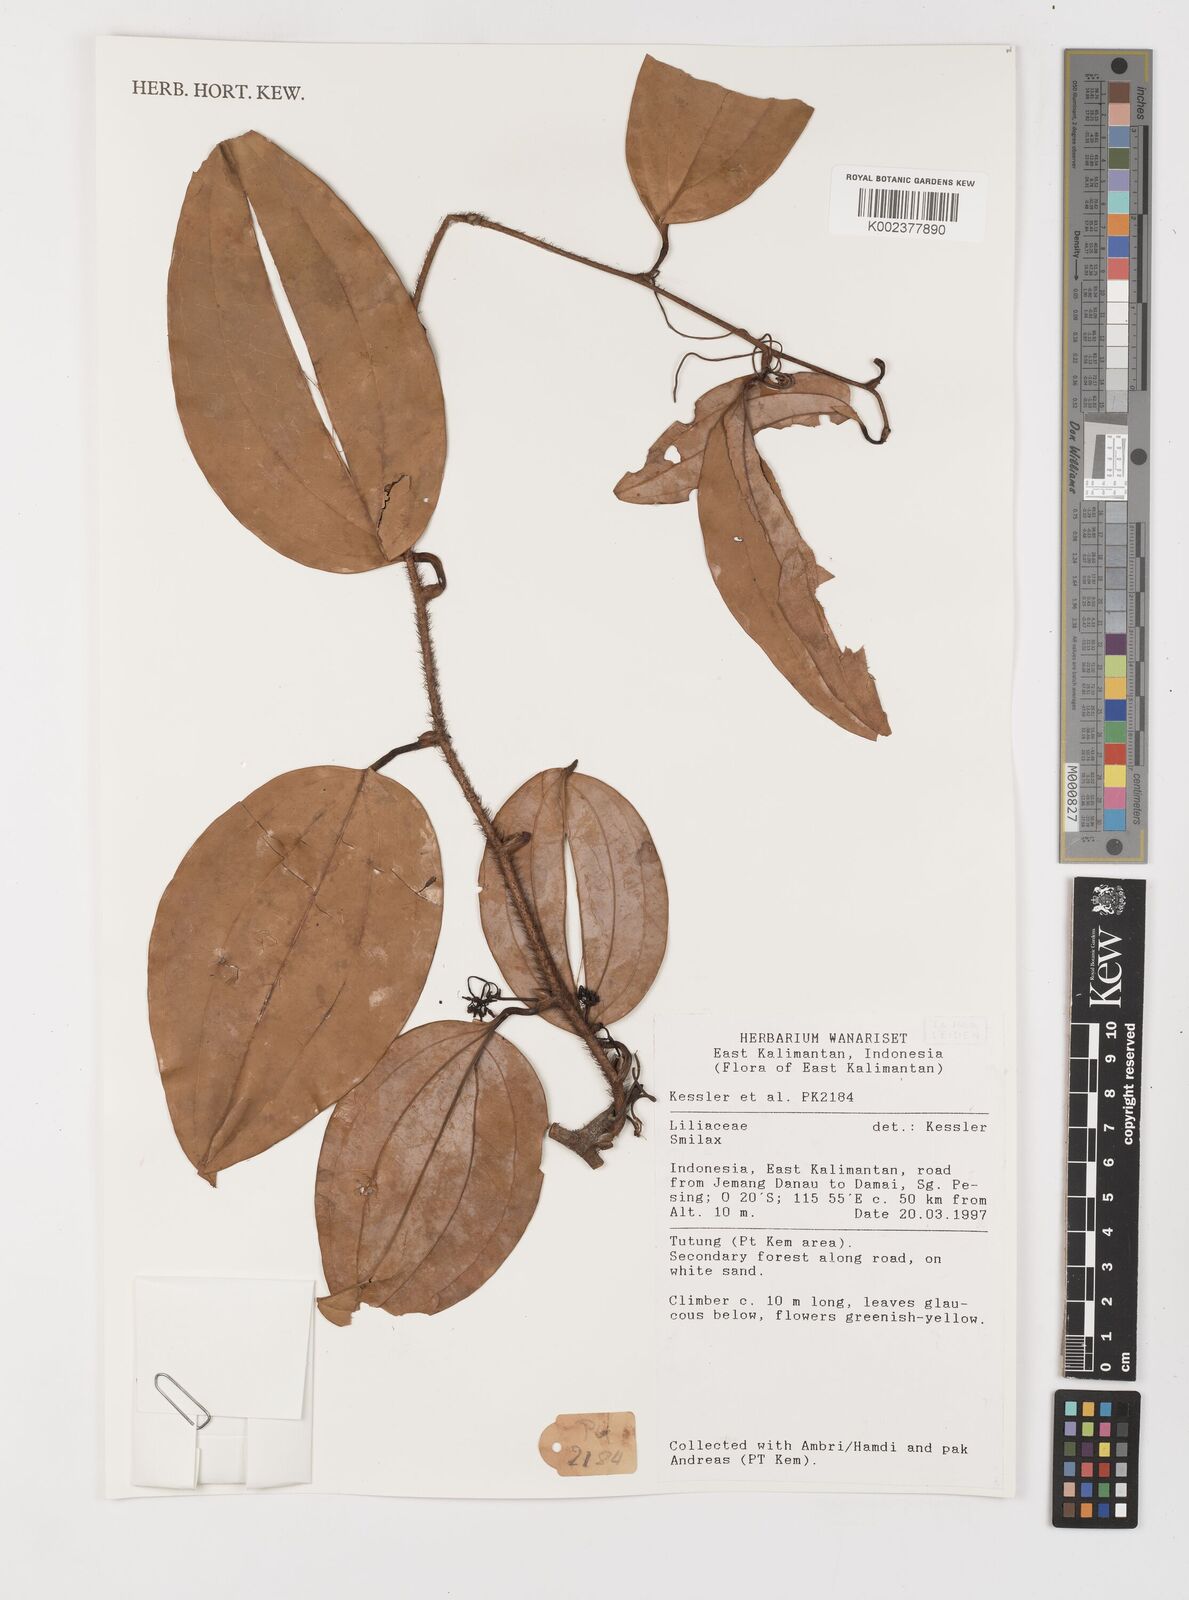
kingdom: Plantae
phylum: Tracheophyta
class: Liliopsida
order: Liliales
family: Smilacaceae
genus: Smilax
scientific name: Smilax
